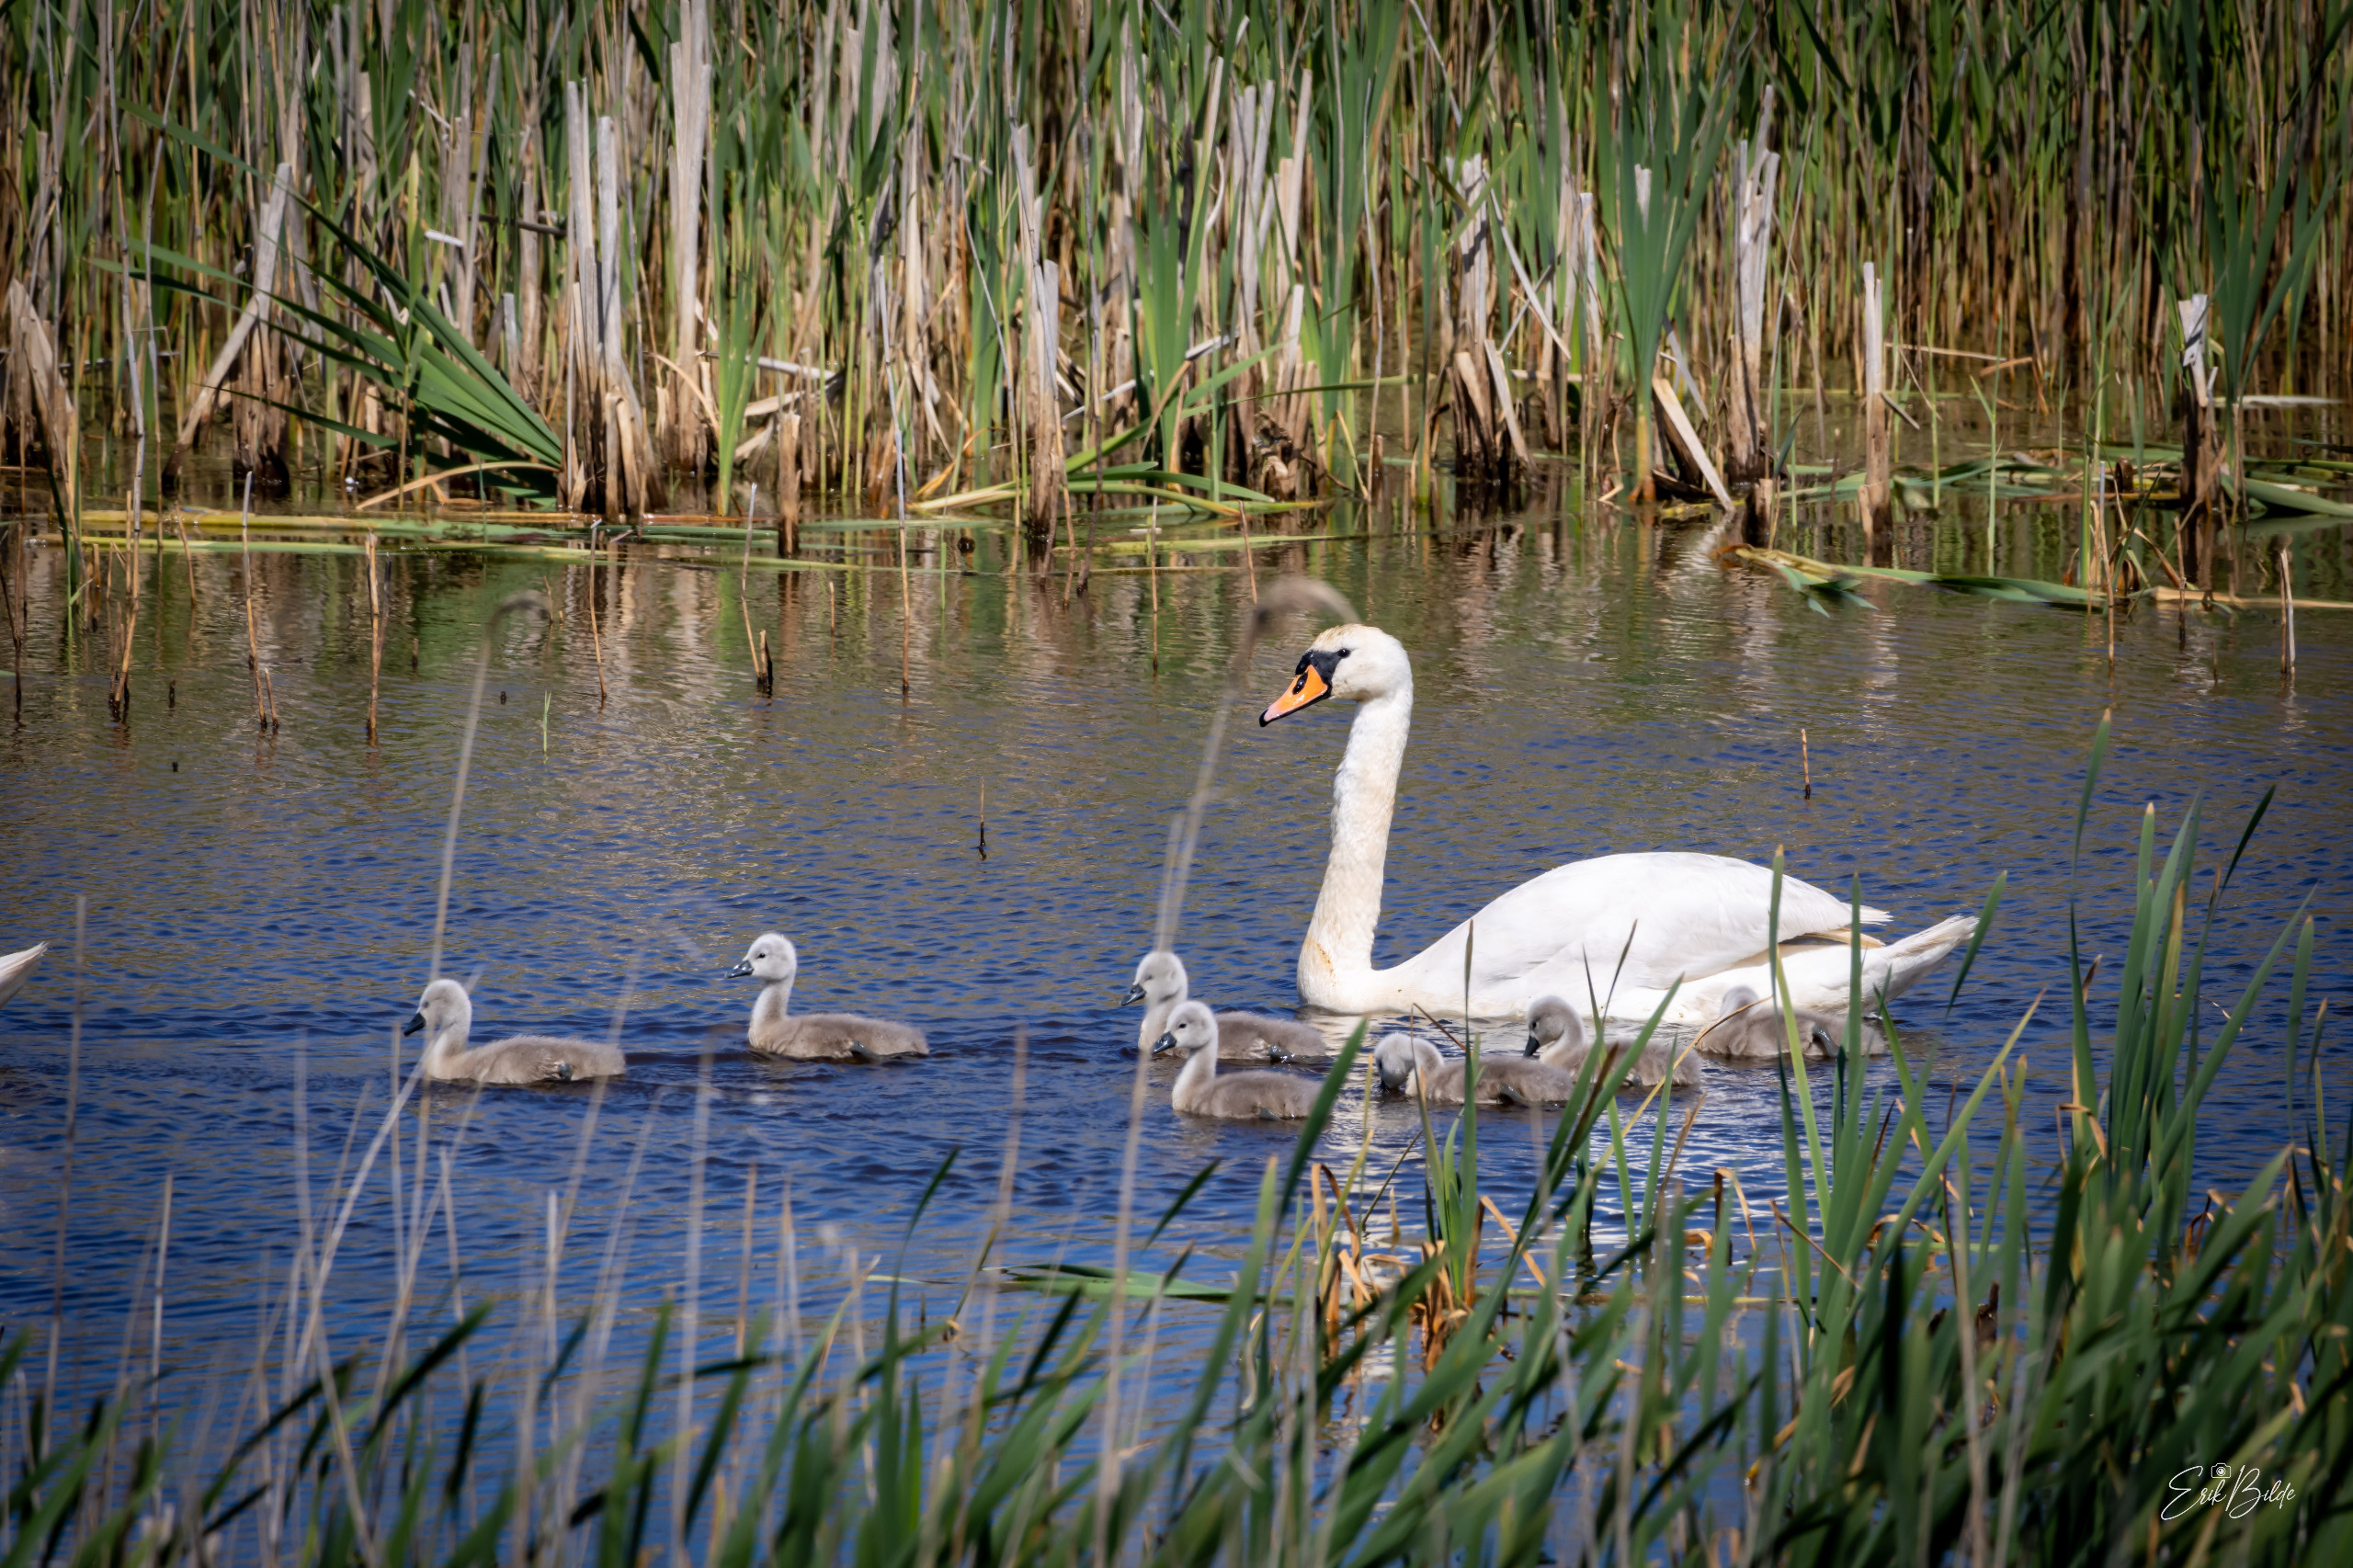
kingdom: Animalia
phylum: Chordata
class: Aves
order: Anseriformes
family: Anatidae
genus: Cygnus
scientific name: Cygnus olor
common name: Knopsvane
